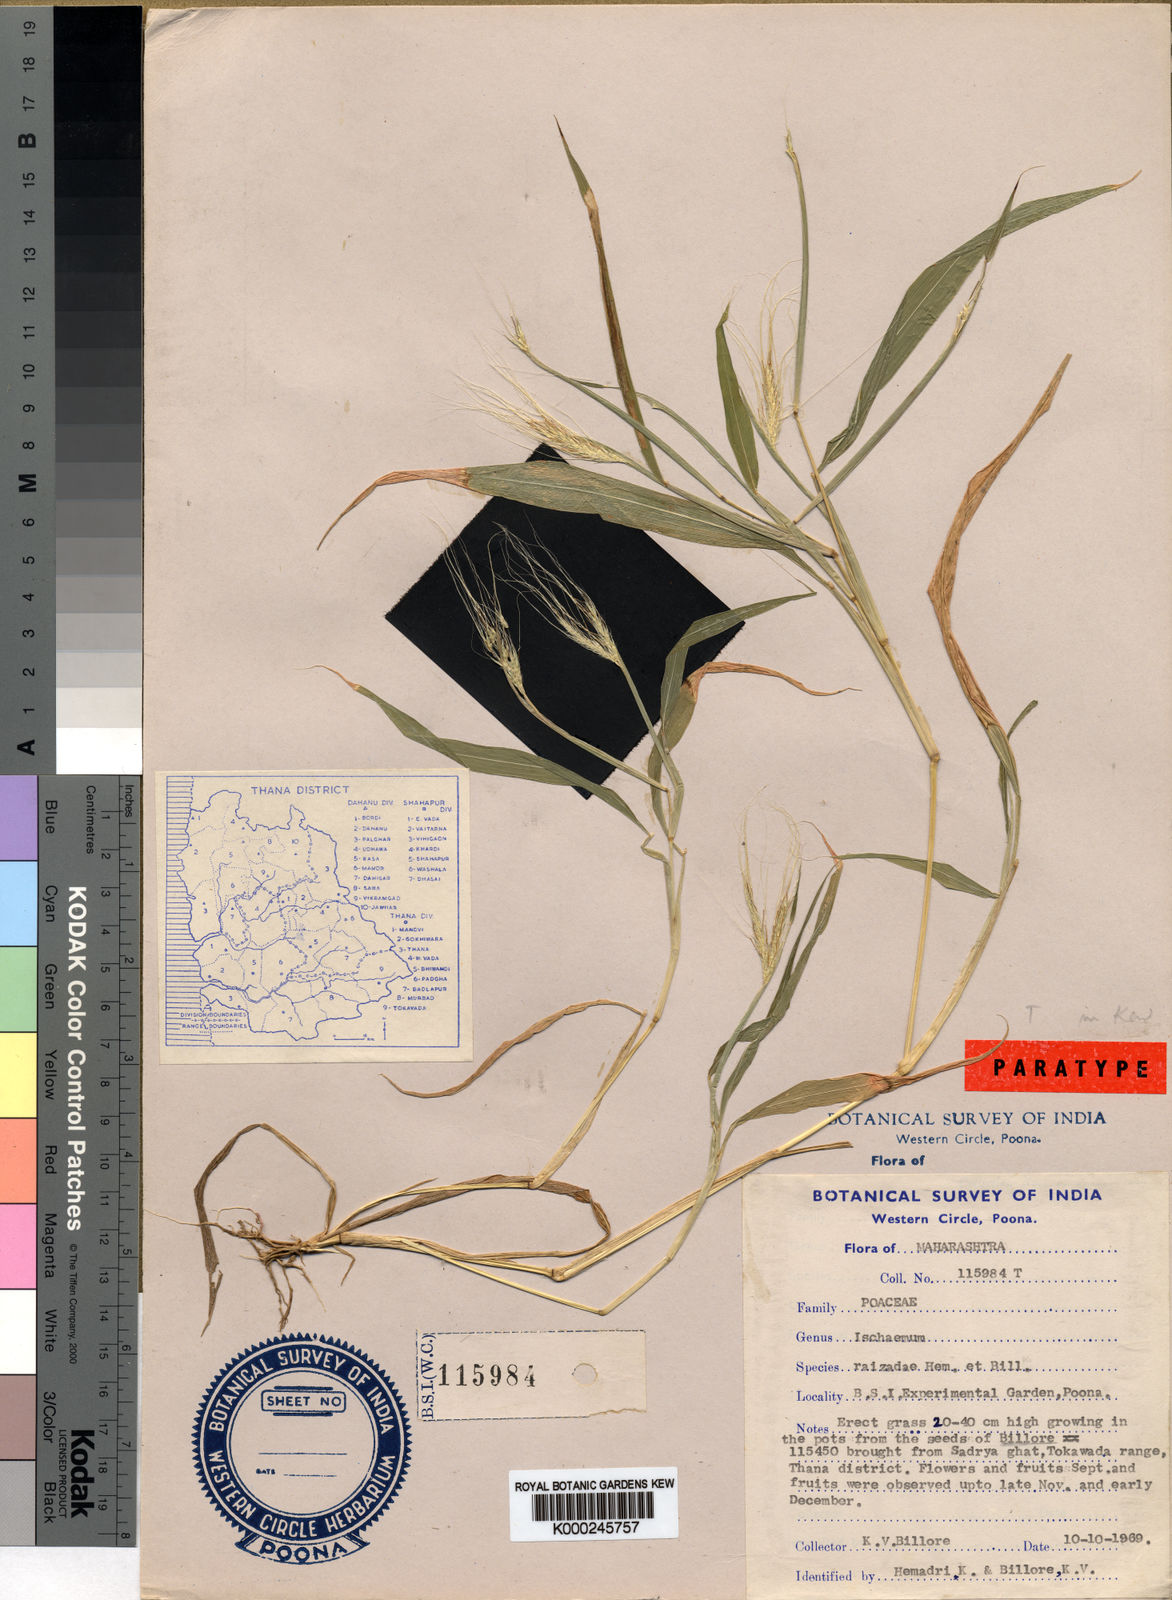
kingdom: Plantae
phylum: Tracheophyta
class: Liliopsida
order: Poales
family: Poaceae
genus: Ischaemum
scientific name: Ischaemum kingii
